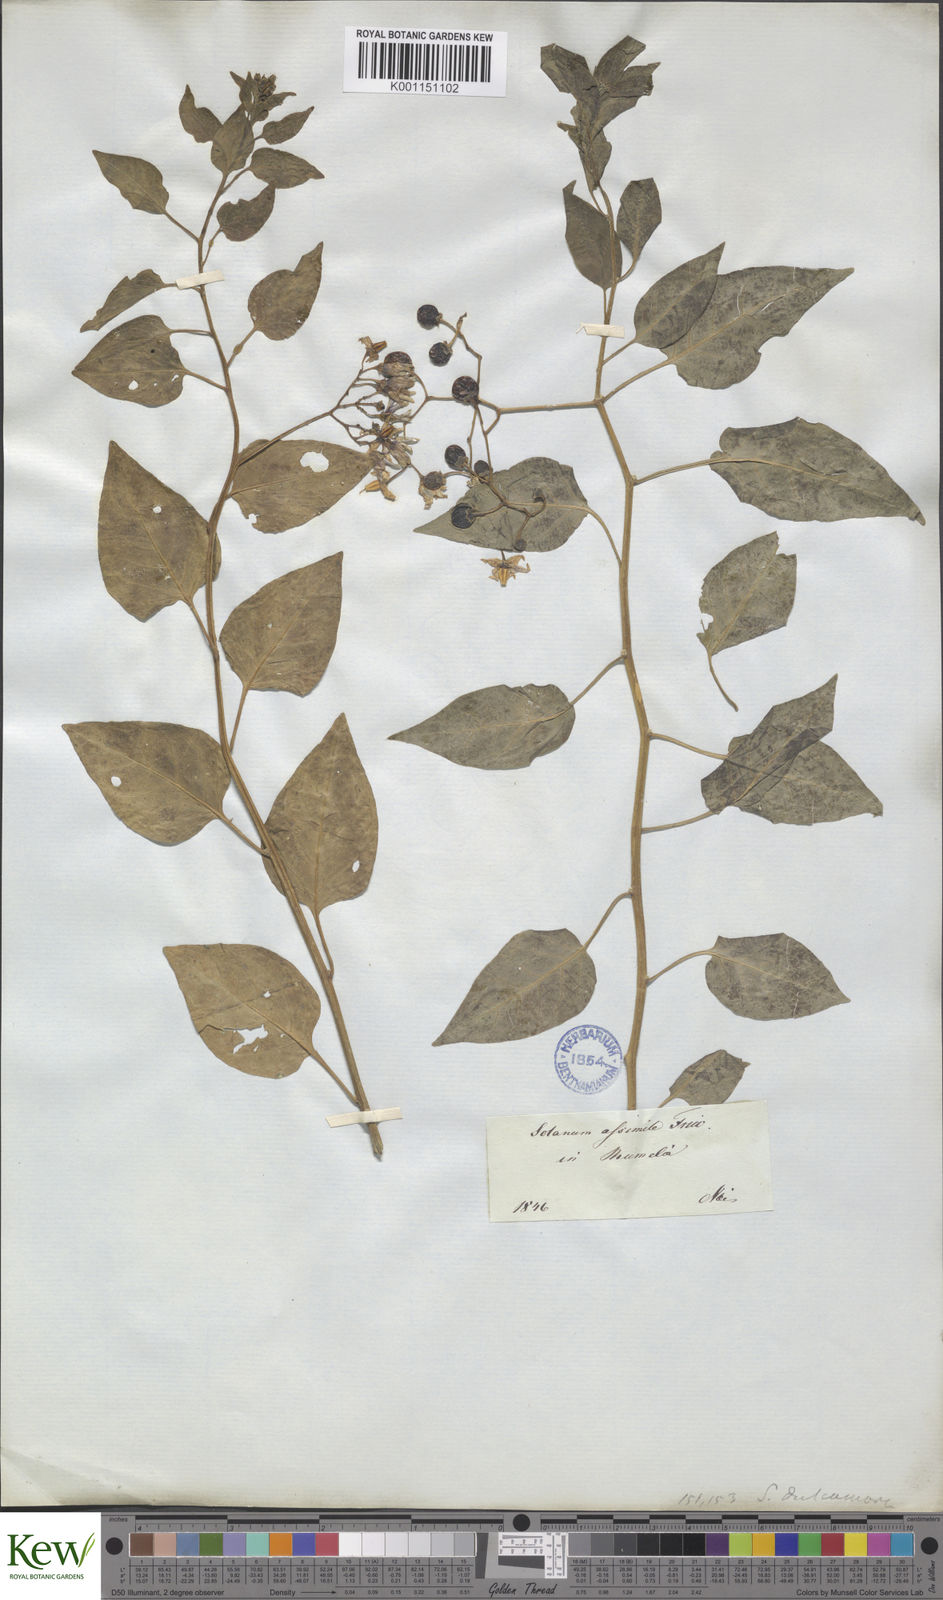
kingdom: Plantae
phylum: Tracheophyta
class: Magnoliopsida
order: Solanales
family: Solanaceae
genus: Solanum
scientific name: Solanum dulcamara
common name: Climbing nightshade
